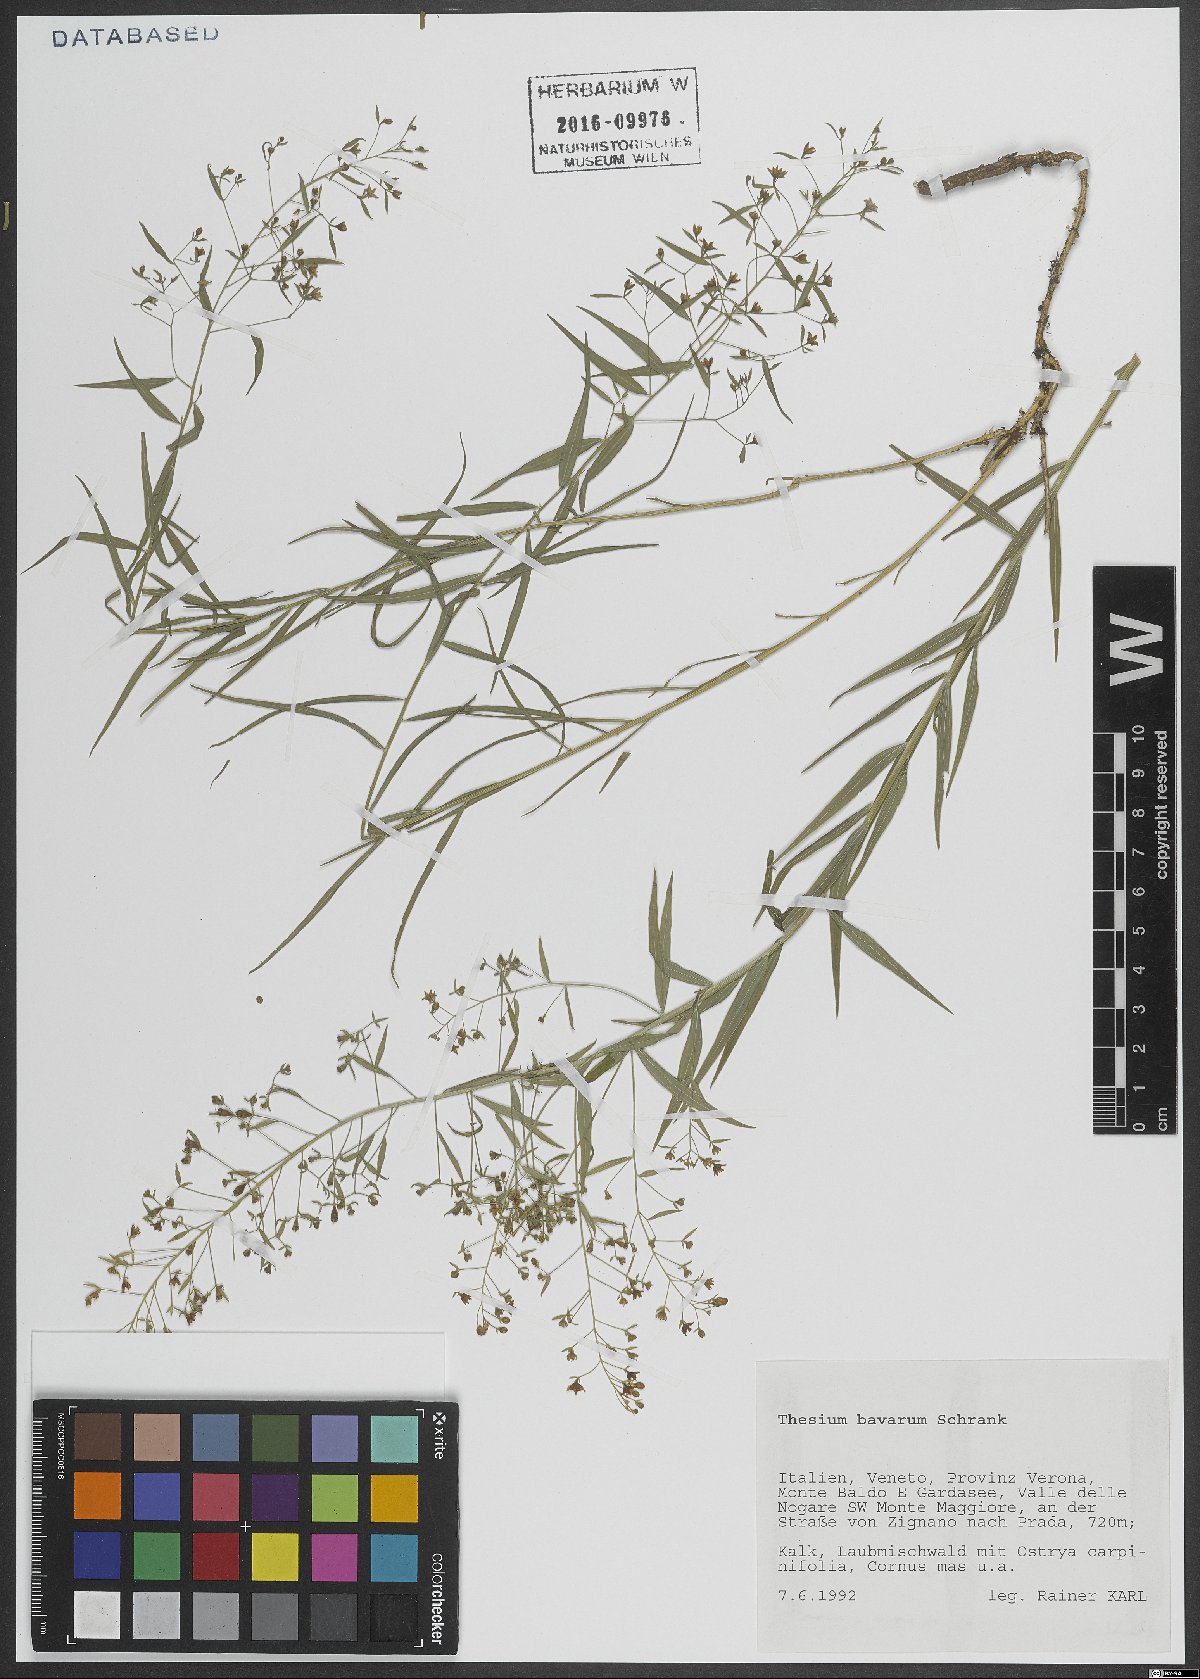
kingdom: Plantae
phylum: Tracheophyta
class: Magnoliopsida
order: Santalales
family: Thesiaceae
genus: Thesium
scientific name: Thesium bavarum
